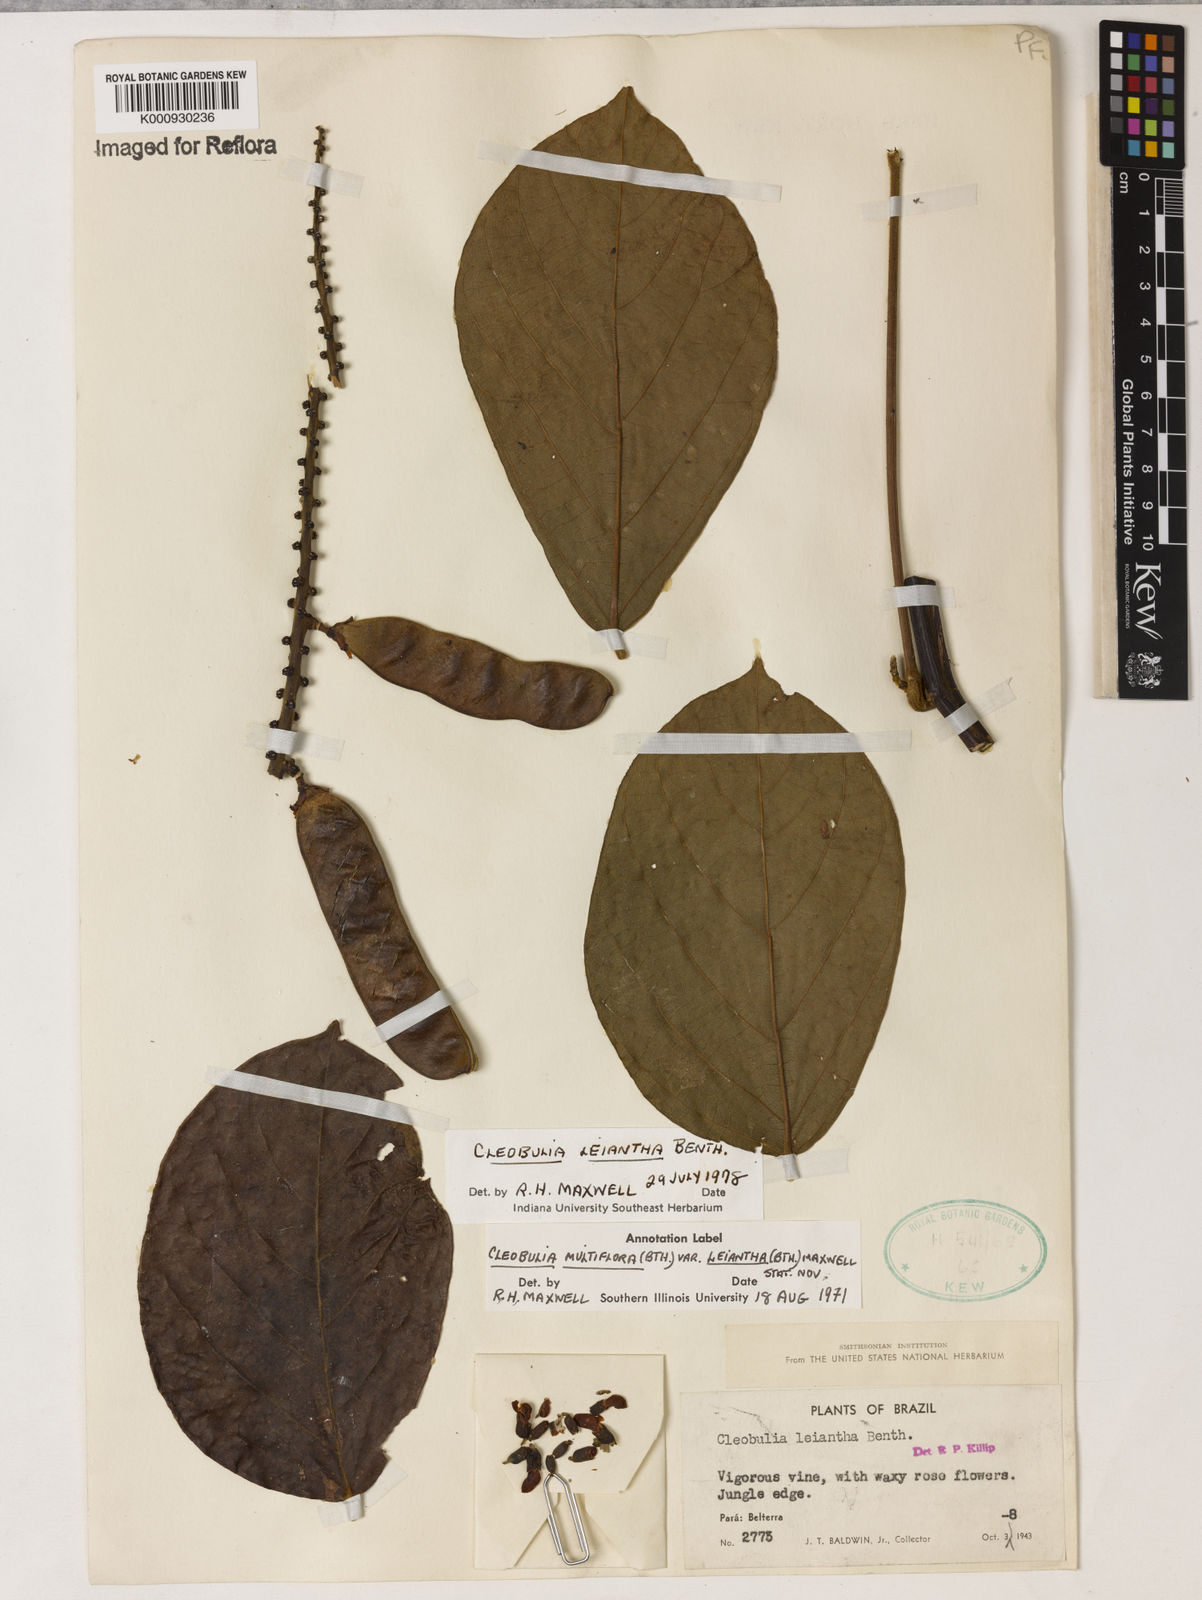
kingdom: Plantae
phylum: Tracheophyta
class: Magnoliopsida
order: Fabales
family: Fabaceae
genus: Cleobulia
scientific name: Cleobulia leiantha
